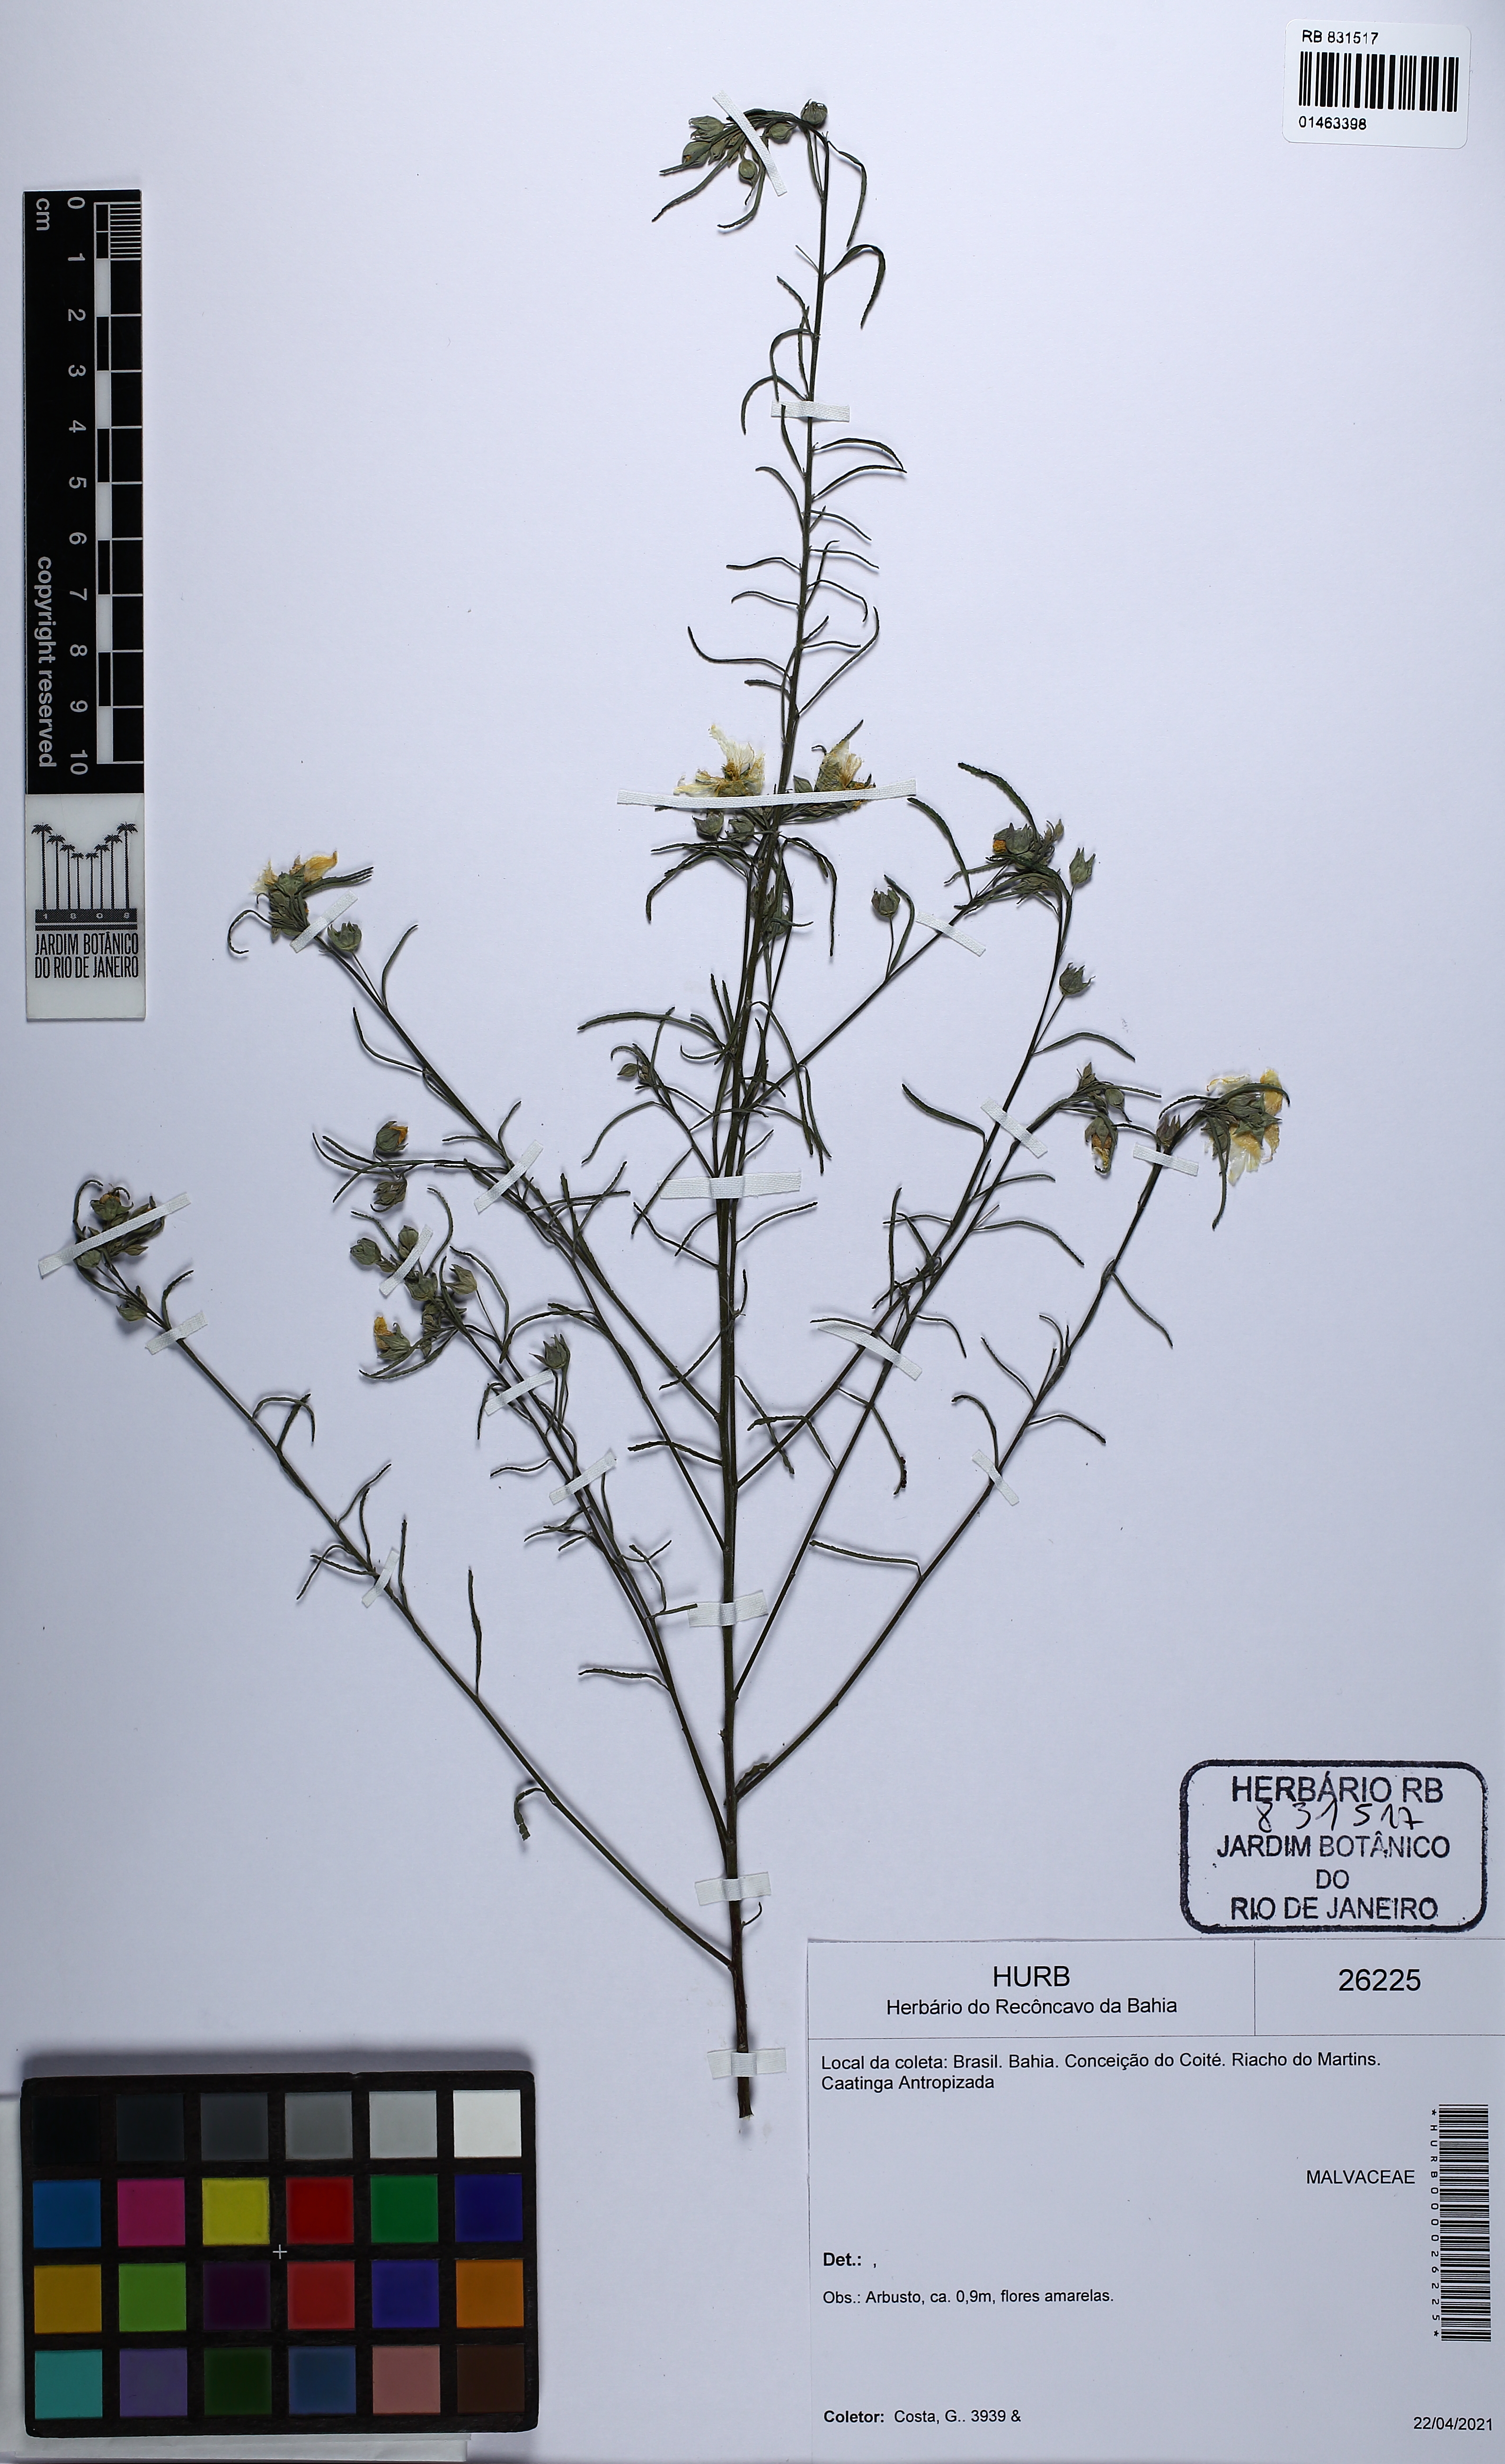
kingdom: Plantae
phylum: Tracheophyta
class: Magnoliopsida
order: Malvales
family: Malvaceae
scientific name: Malvaceae
